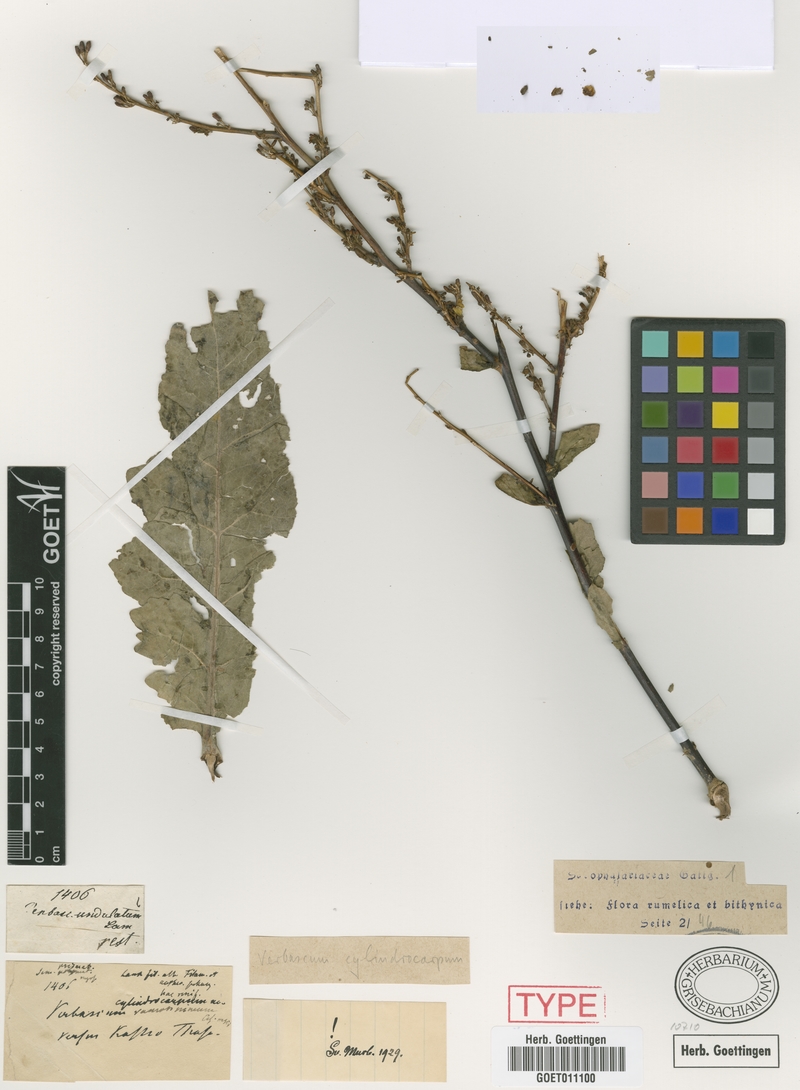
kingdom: Plantae
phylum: Tracheophyta
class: Magnoliopsida
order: Lamiales
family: Scrophulariaceae
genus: Verbascum
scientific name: Verbascum cylindrocarpum
